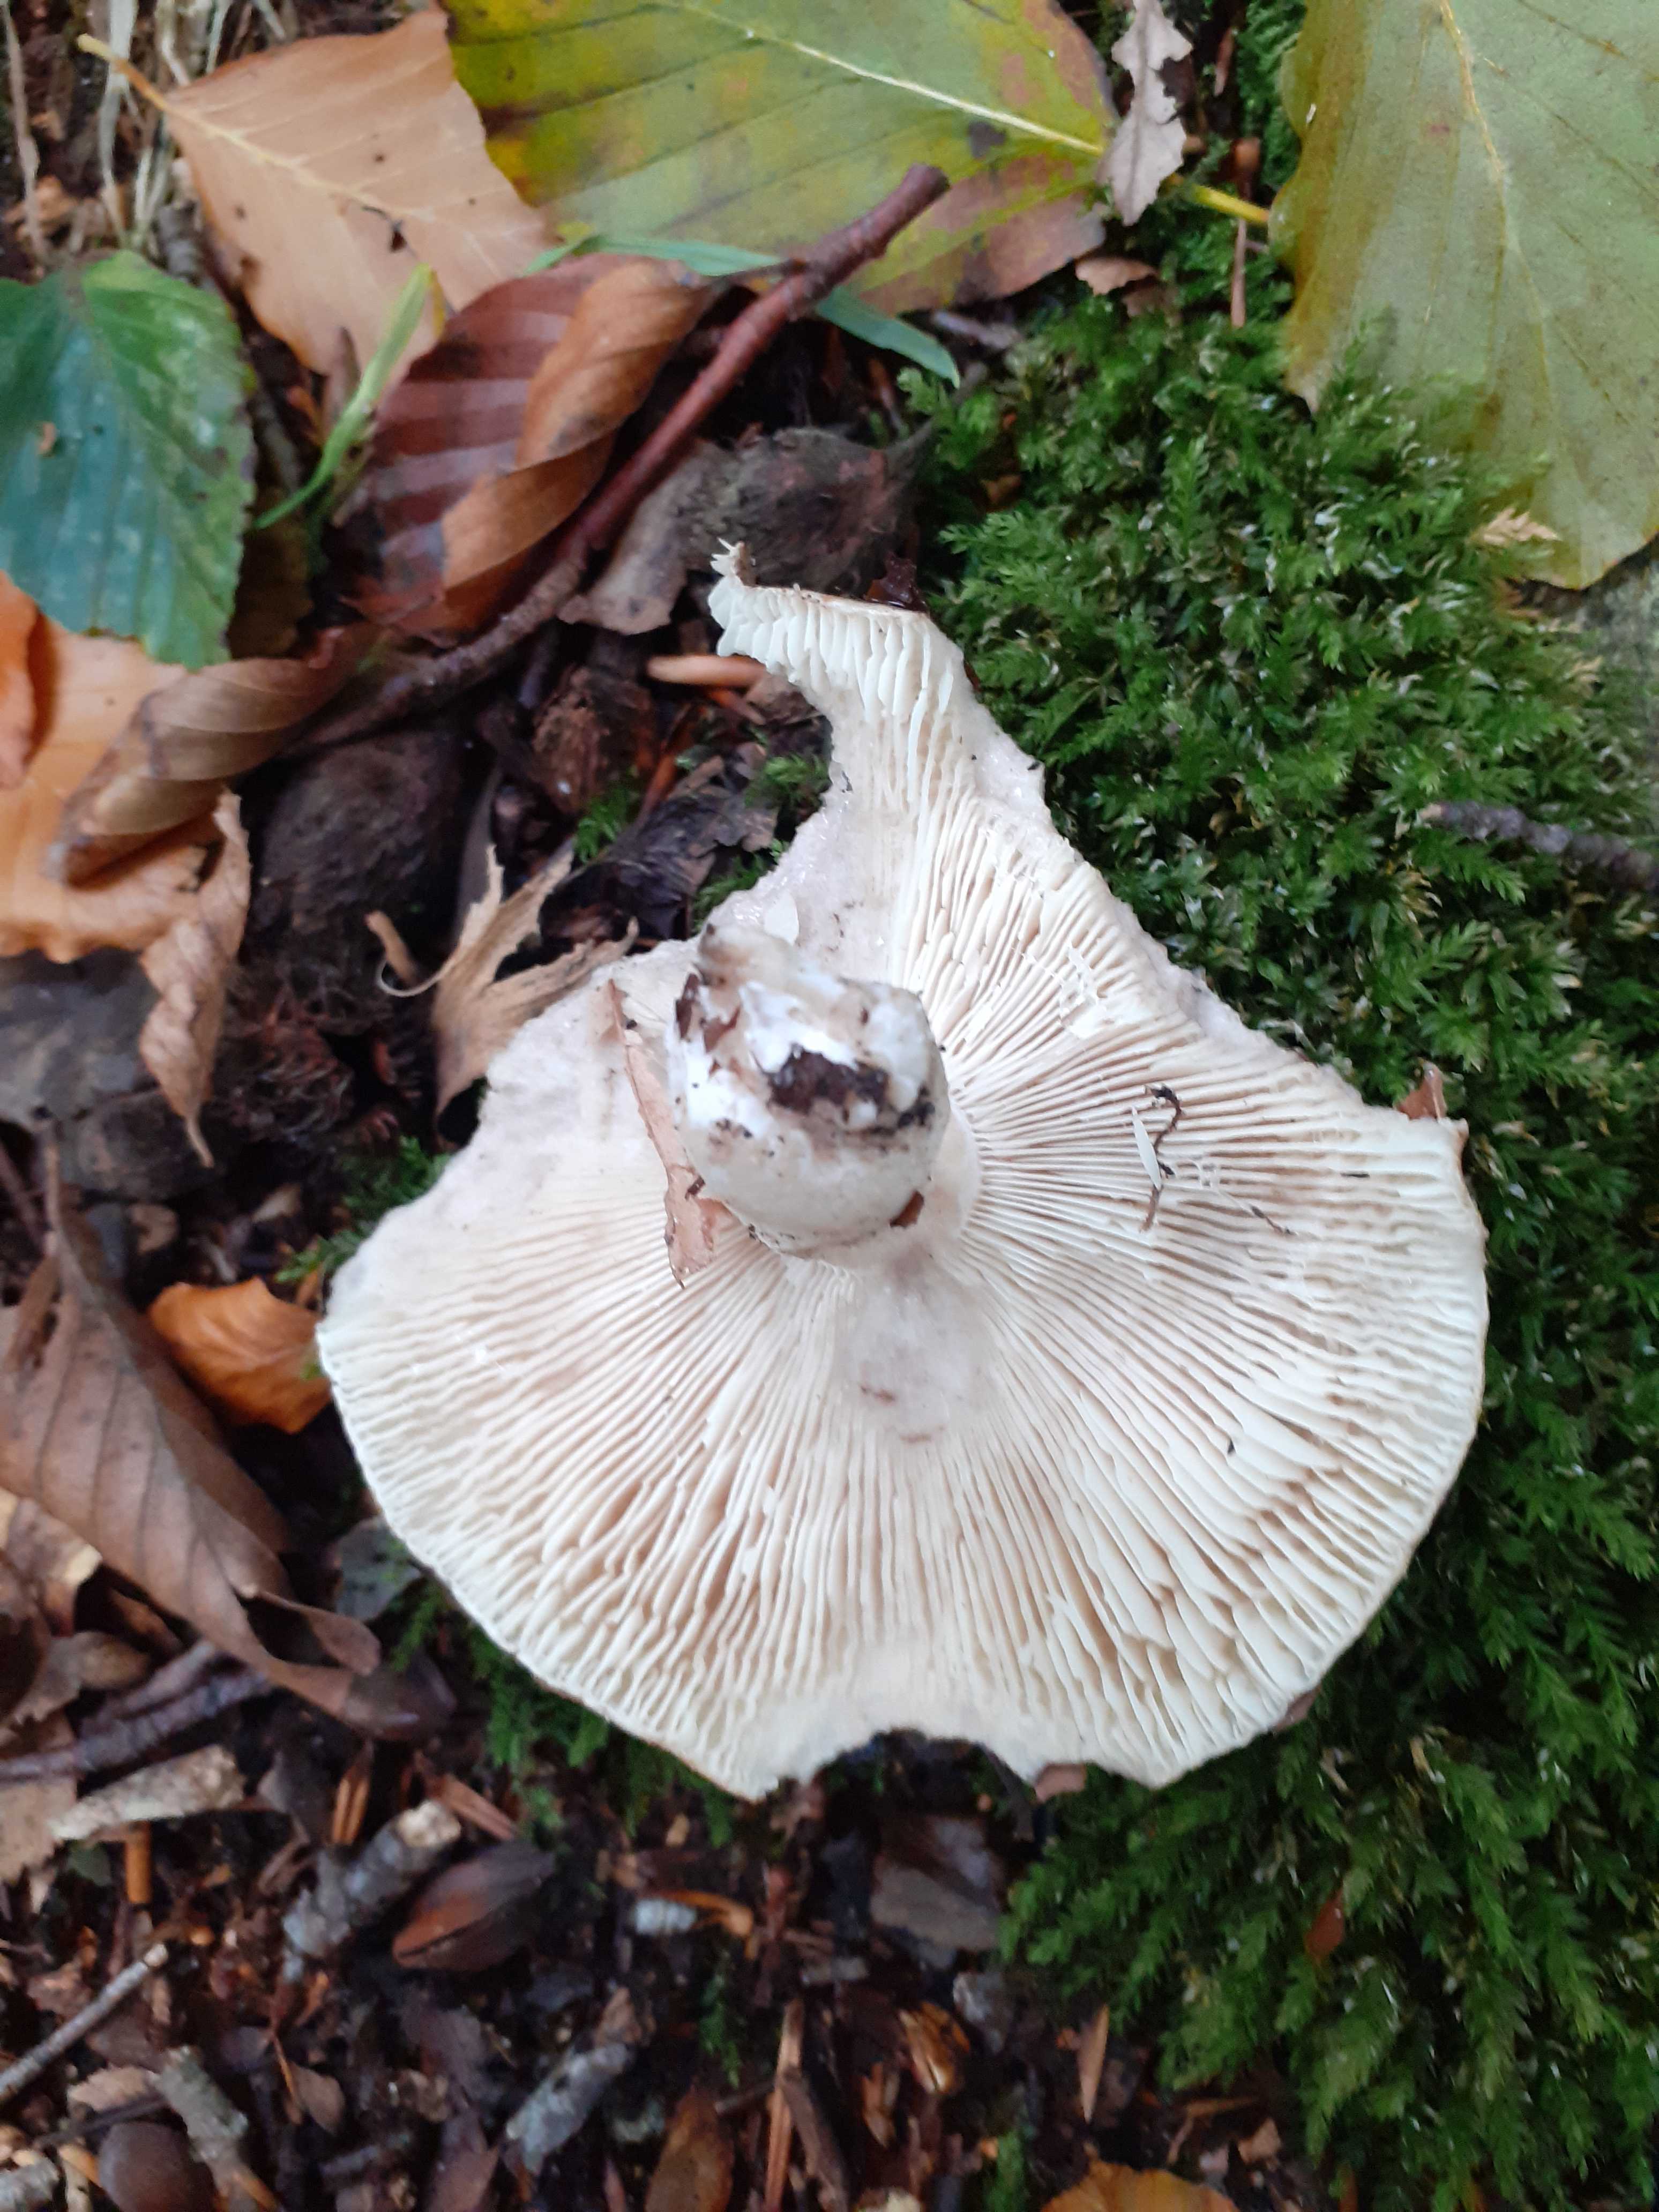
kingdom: Fungi
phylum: Basidiomycota
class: Agaricomycetes
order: Russulales
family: Russulaceae
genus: Russula
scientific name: Russula densifolia
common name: tætbladet skørhat
